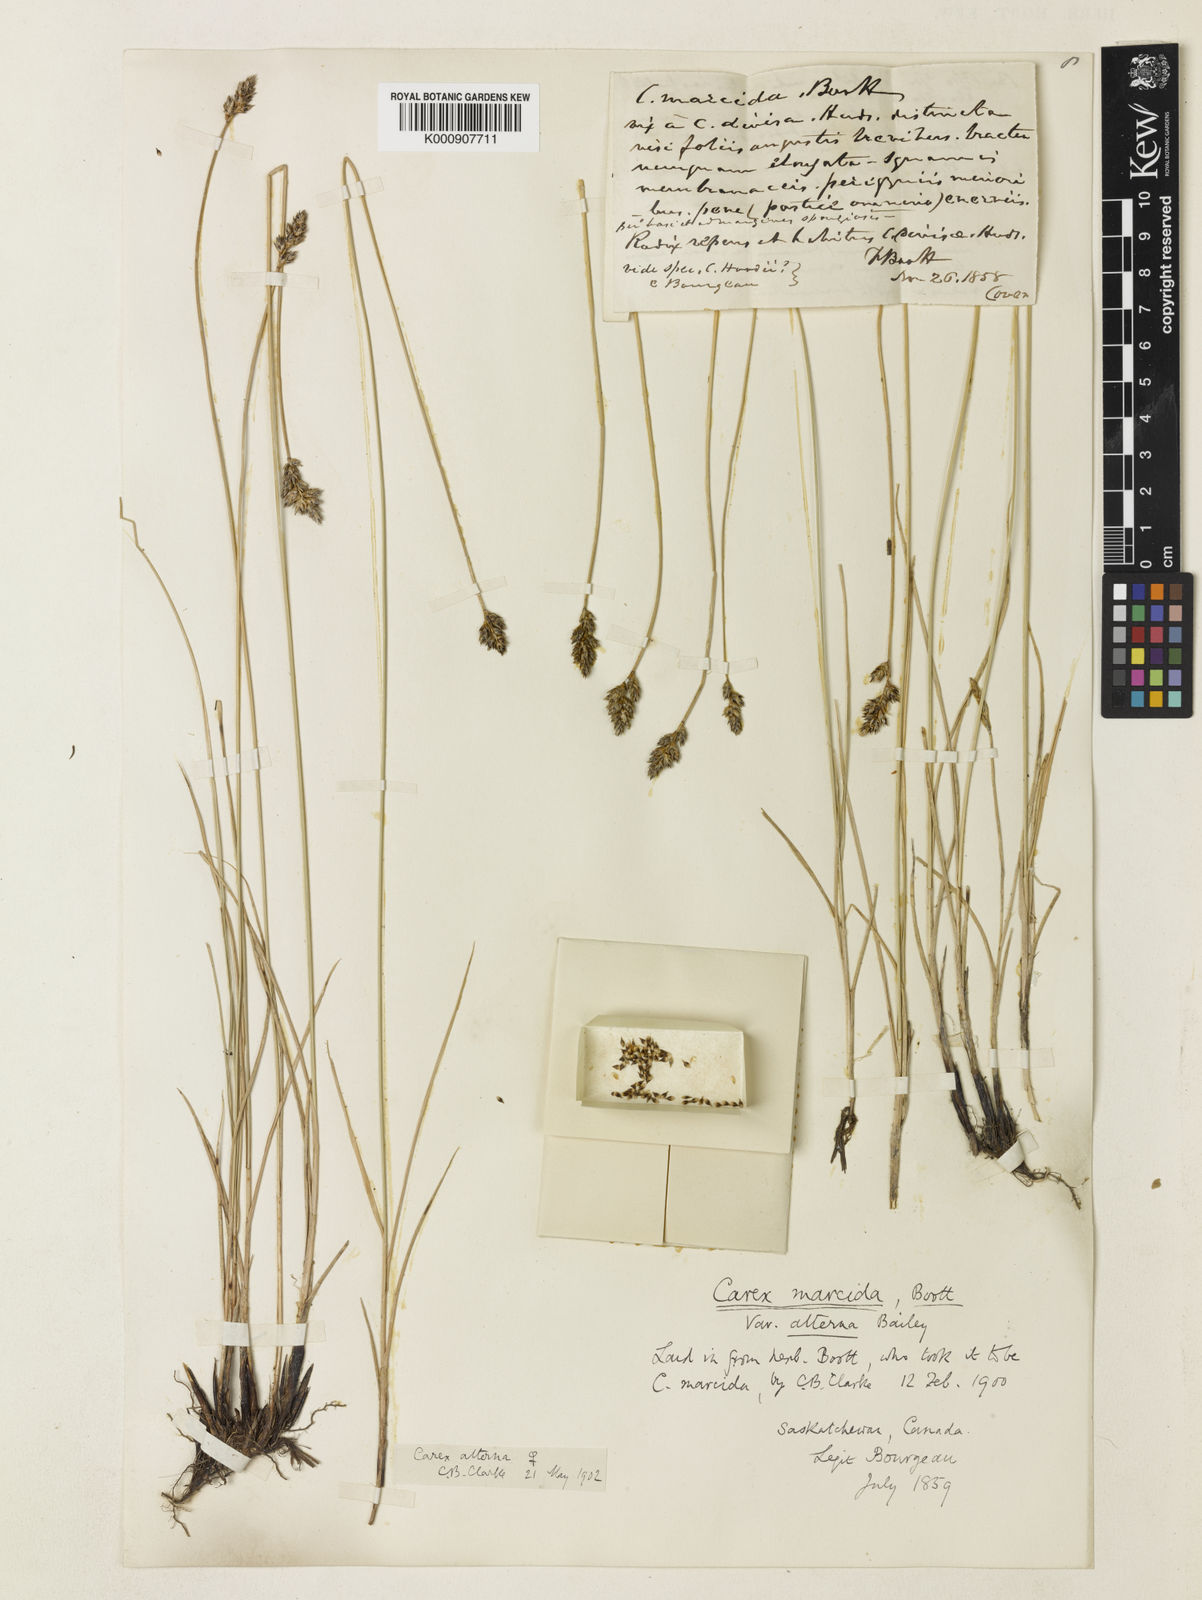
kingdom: Plantae
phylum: Tracheophyta
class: Liliopsida
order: Poales
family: Cyperaceae
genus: Carex
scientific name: Carex praegracilis
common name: Black creeper sedge
